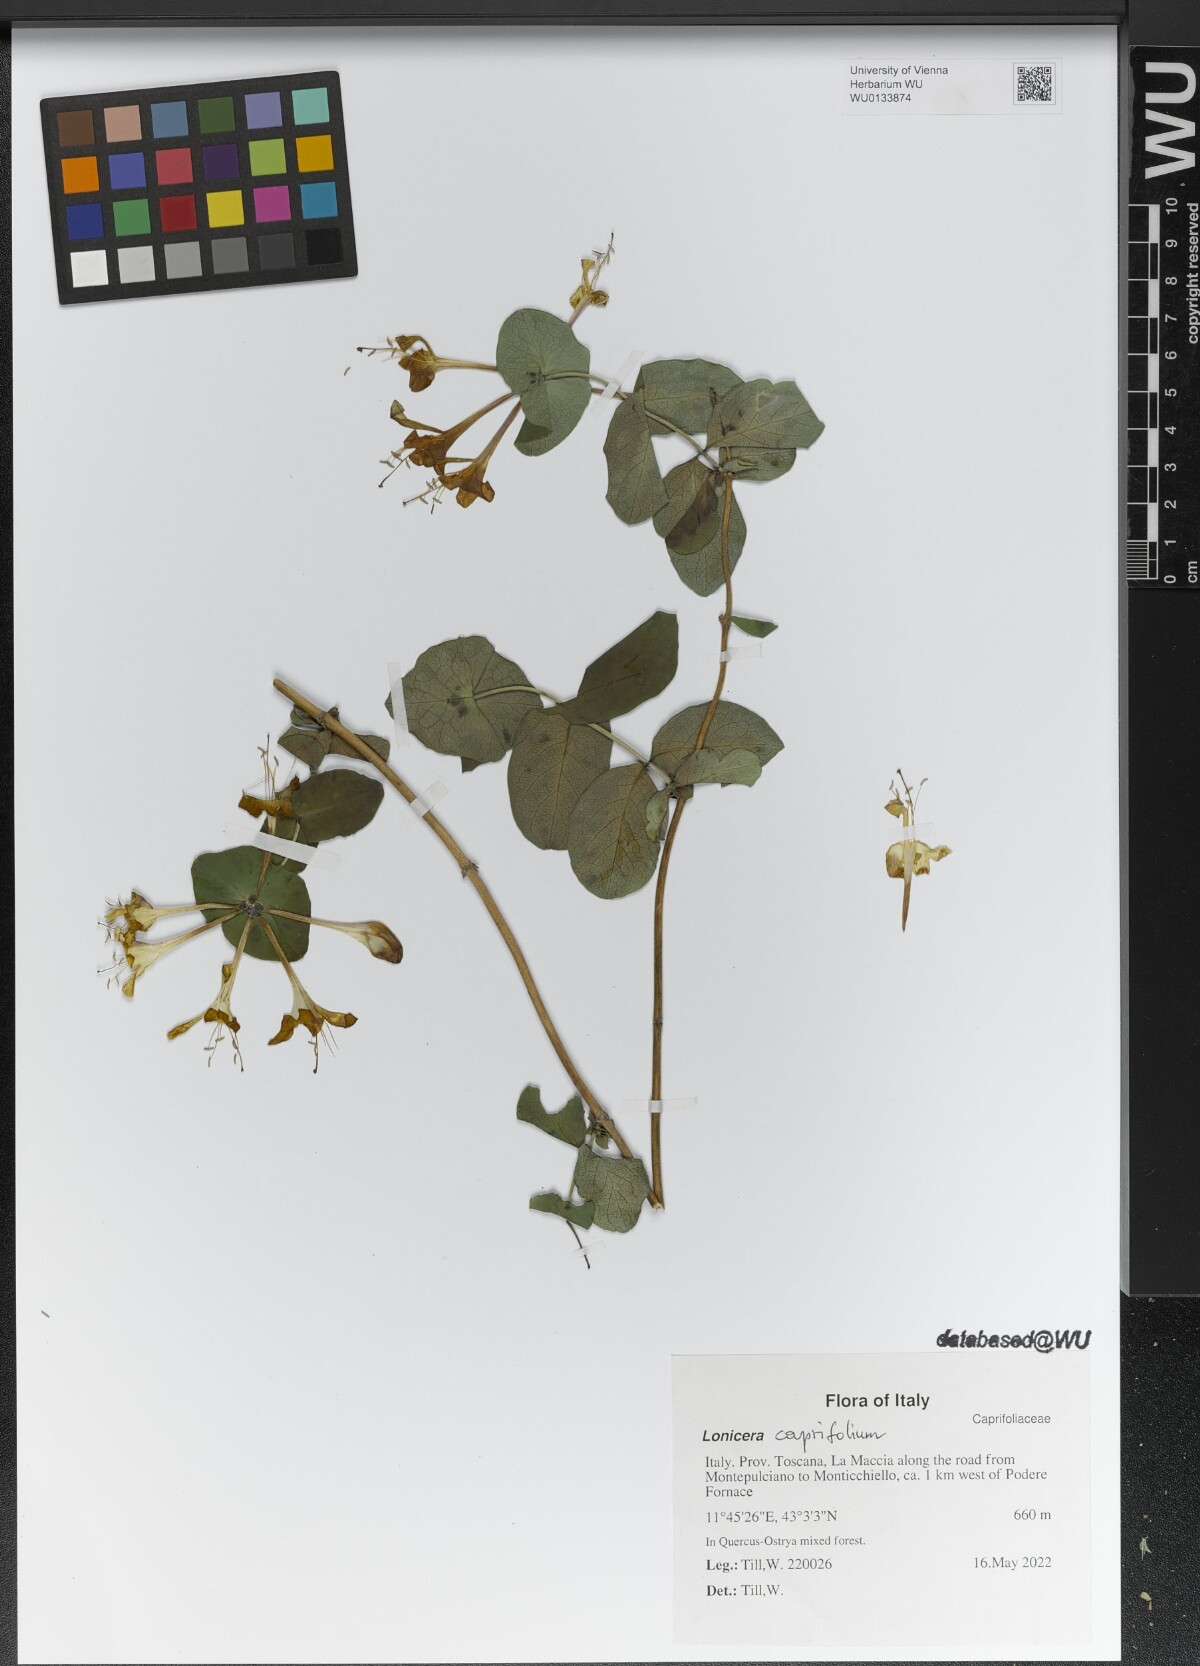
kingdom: Plantae
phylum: Tracheophyta
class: Magnoliopsida
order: Dipsacales
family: Caprifoliaceae
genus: Lonicera
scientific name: Lonicera caprifolium
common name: Perfoliate honeysuckle
